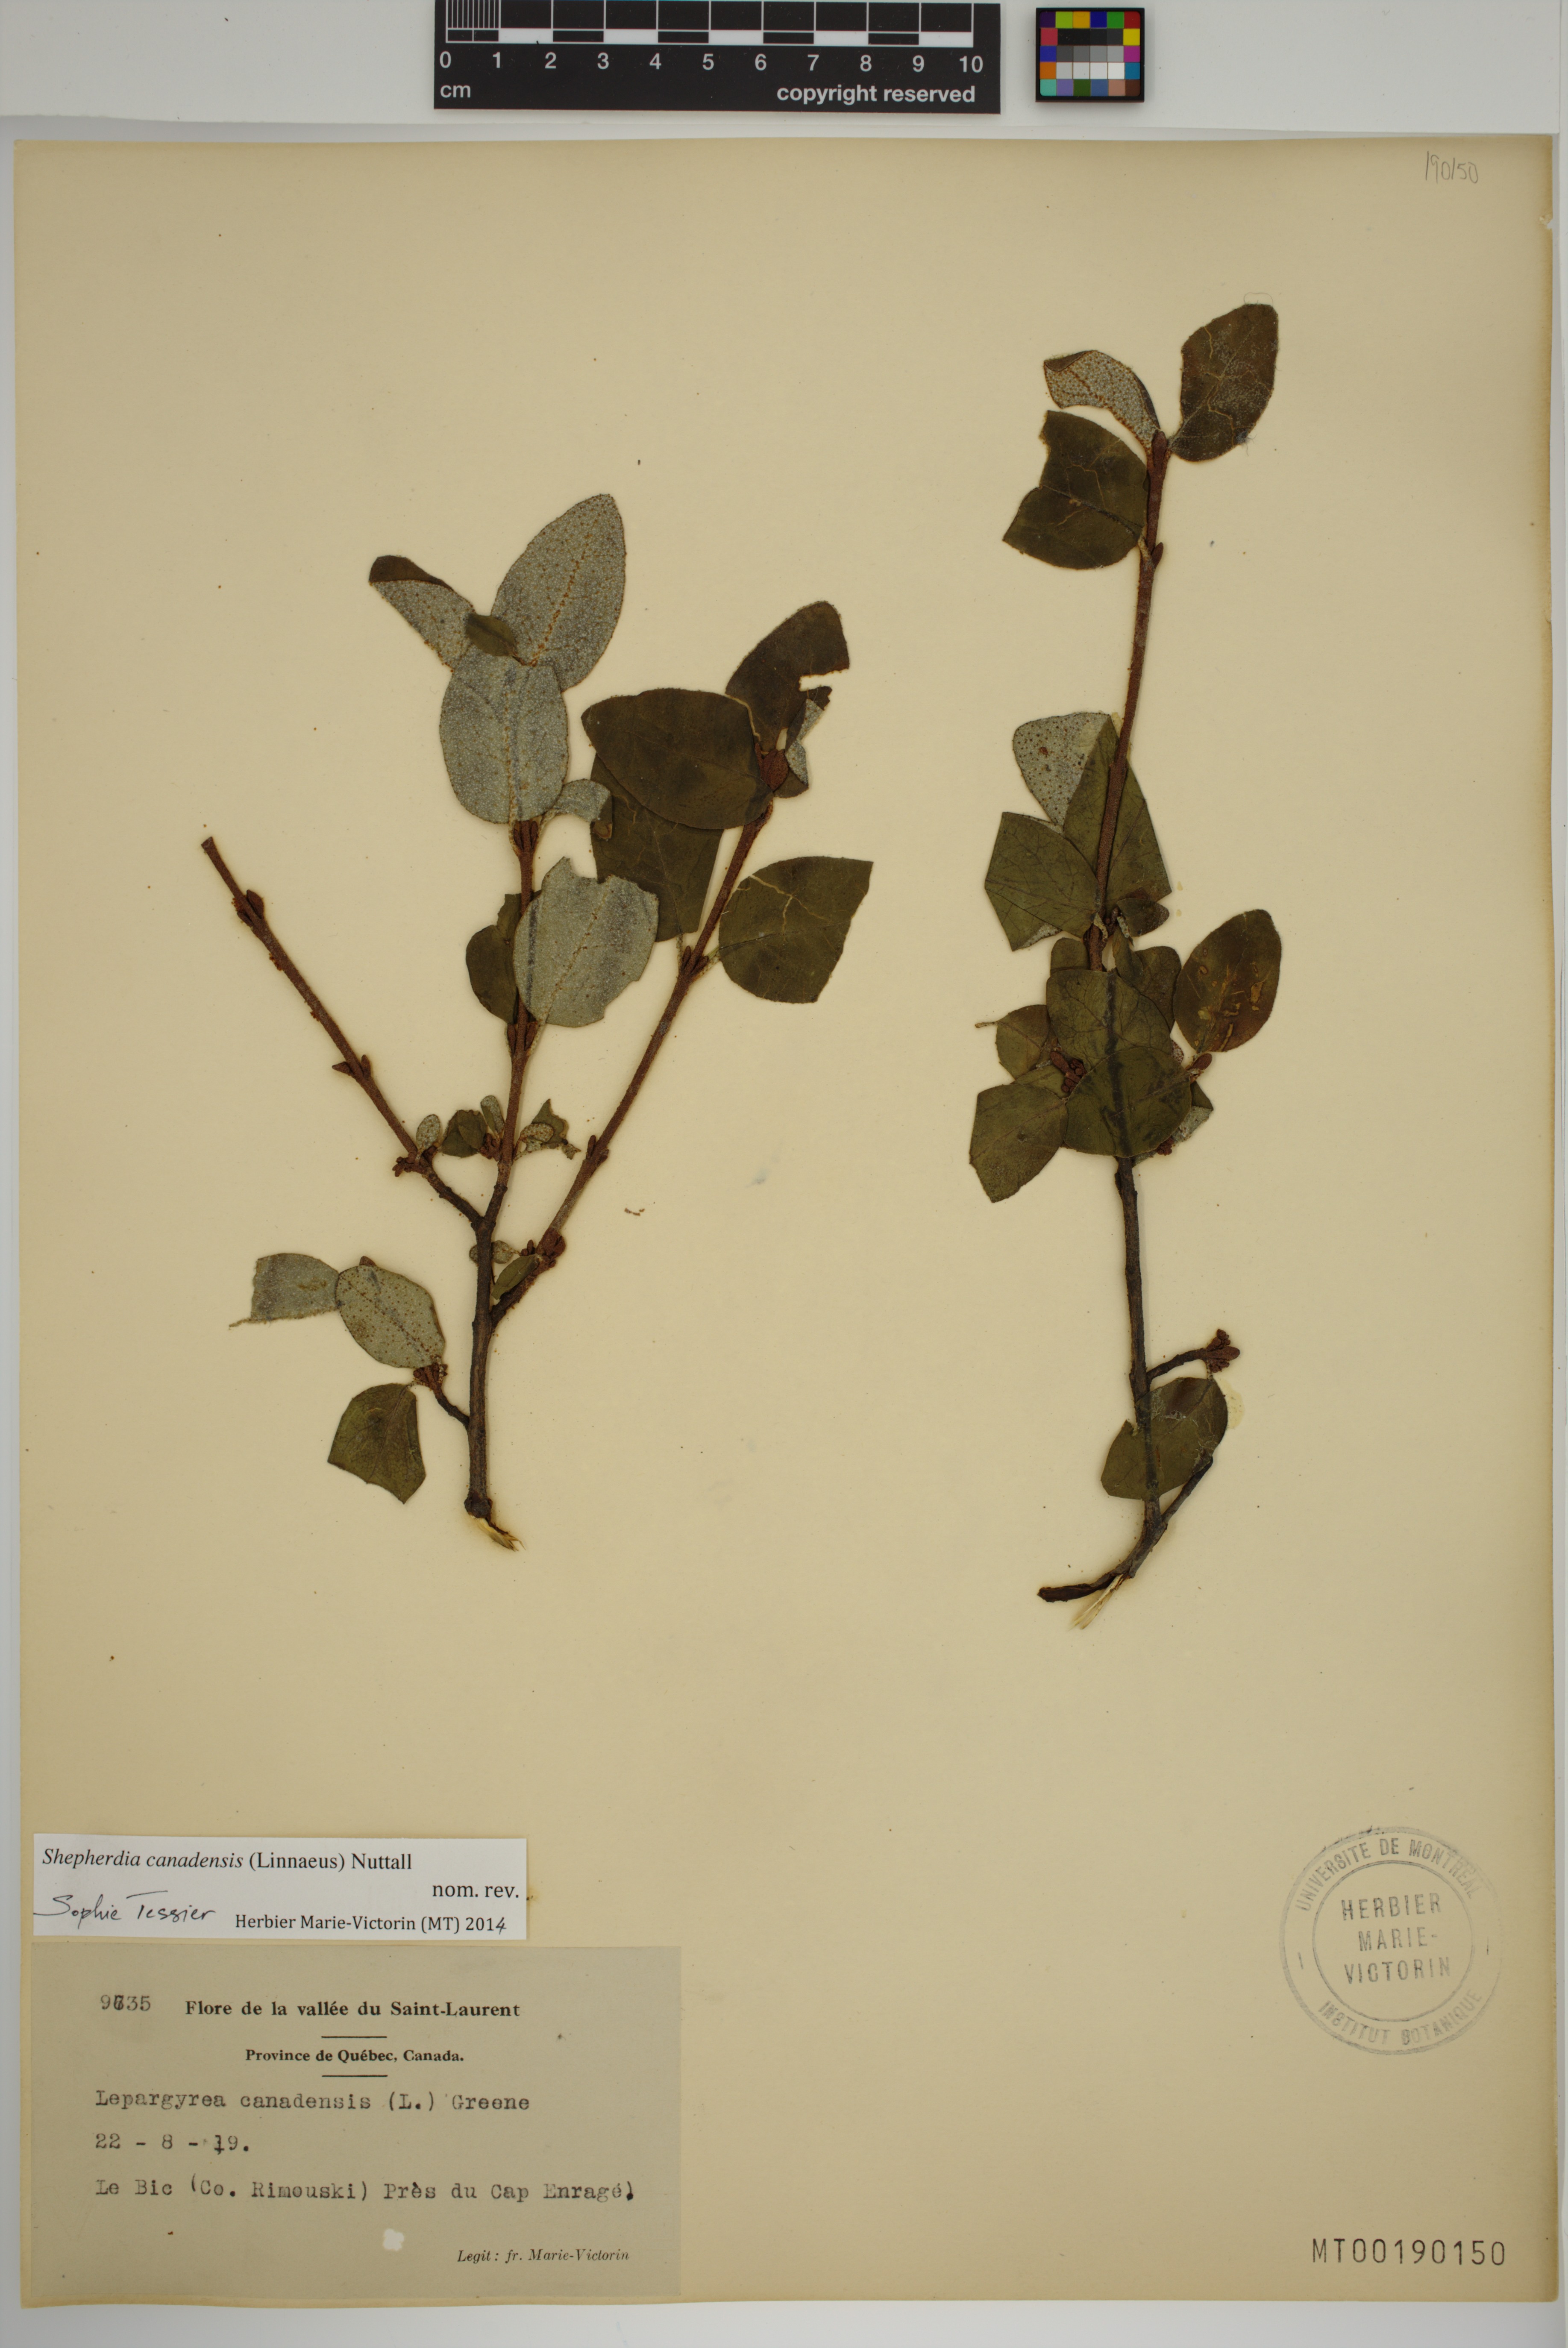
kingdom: Plantae
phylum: Tracheophyta
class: Magnoliopsida
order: Rosales
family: Elaeagnaceae
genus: Shepherdia
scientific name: Shepherdia canadensis
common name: Soapberry
